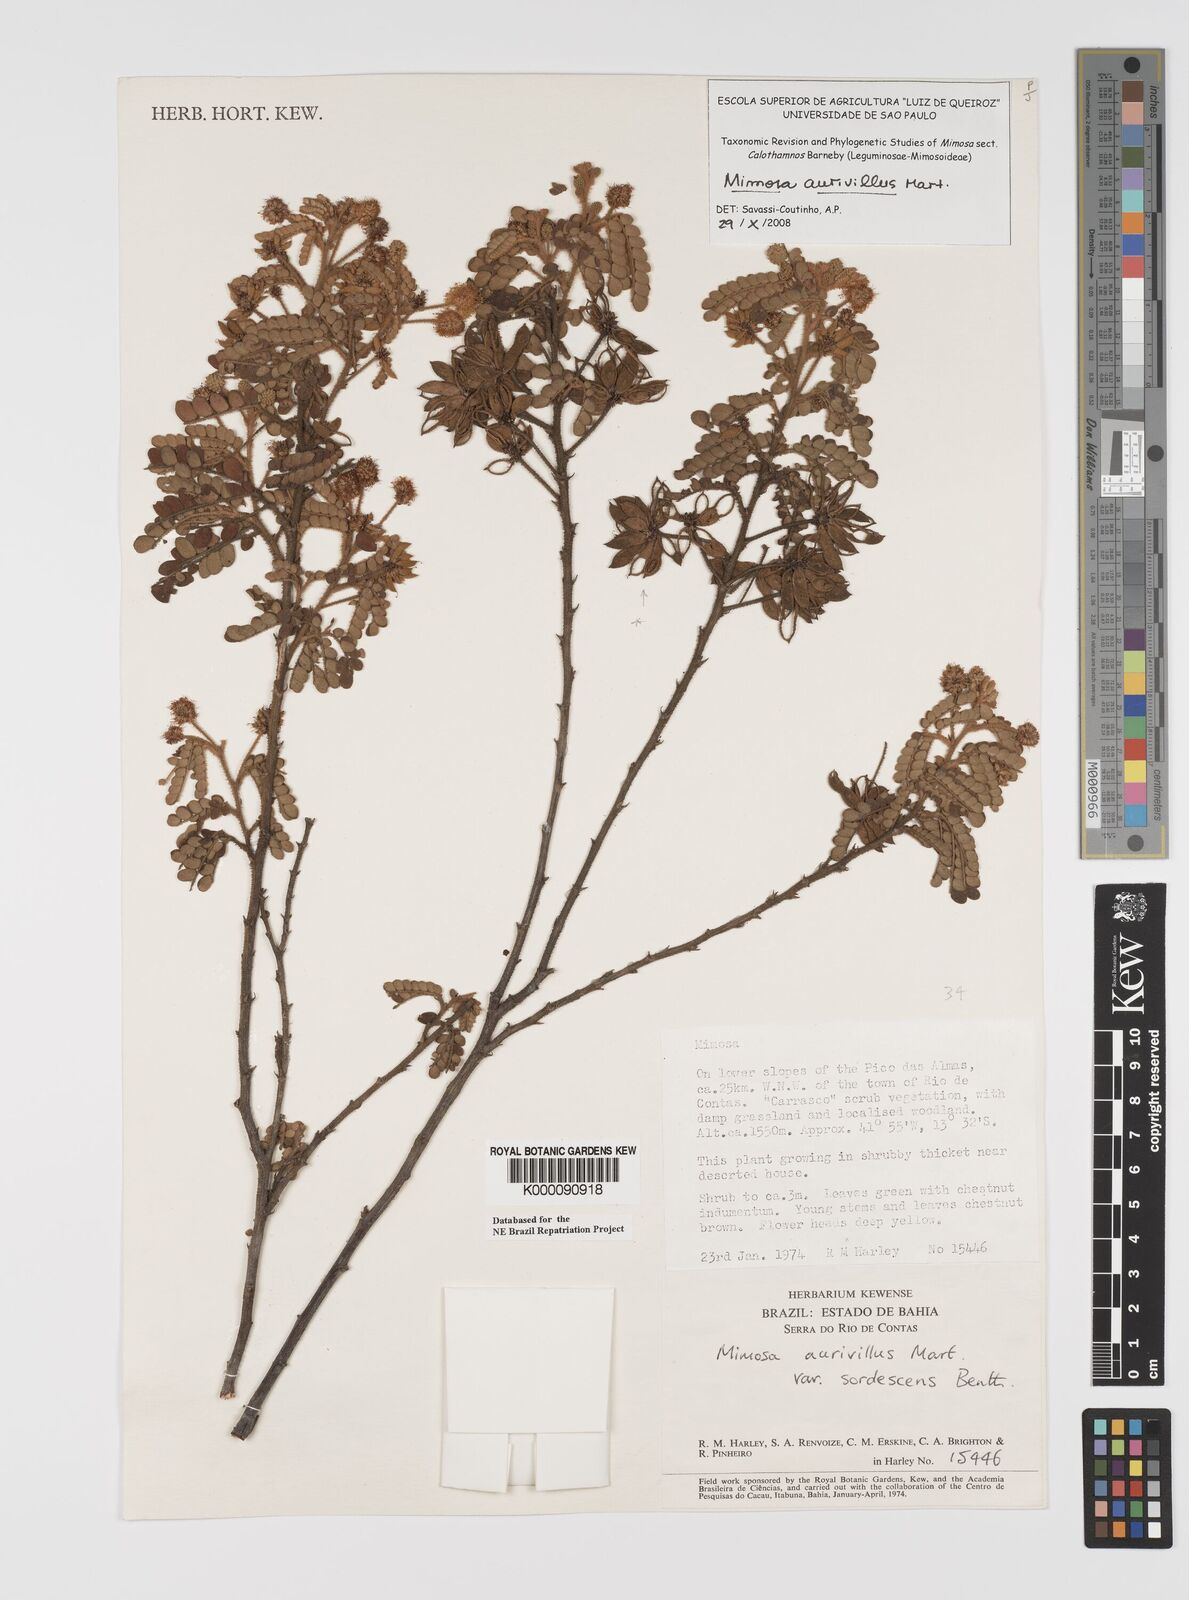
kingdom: Plantae
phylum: Tracheophyta
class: Magnoliopsida
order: Fabales
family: Fabaceae
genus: Mimosa
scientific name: Mimosa aurivillus
